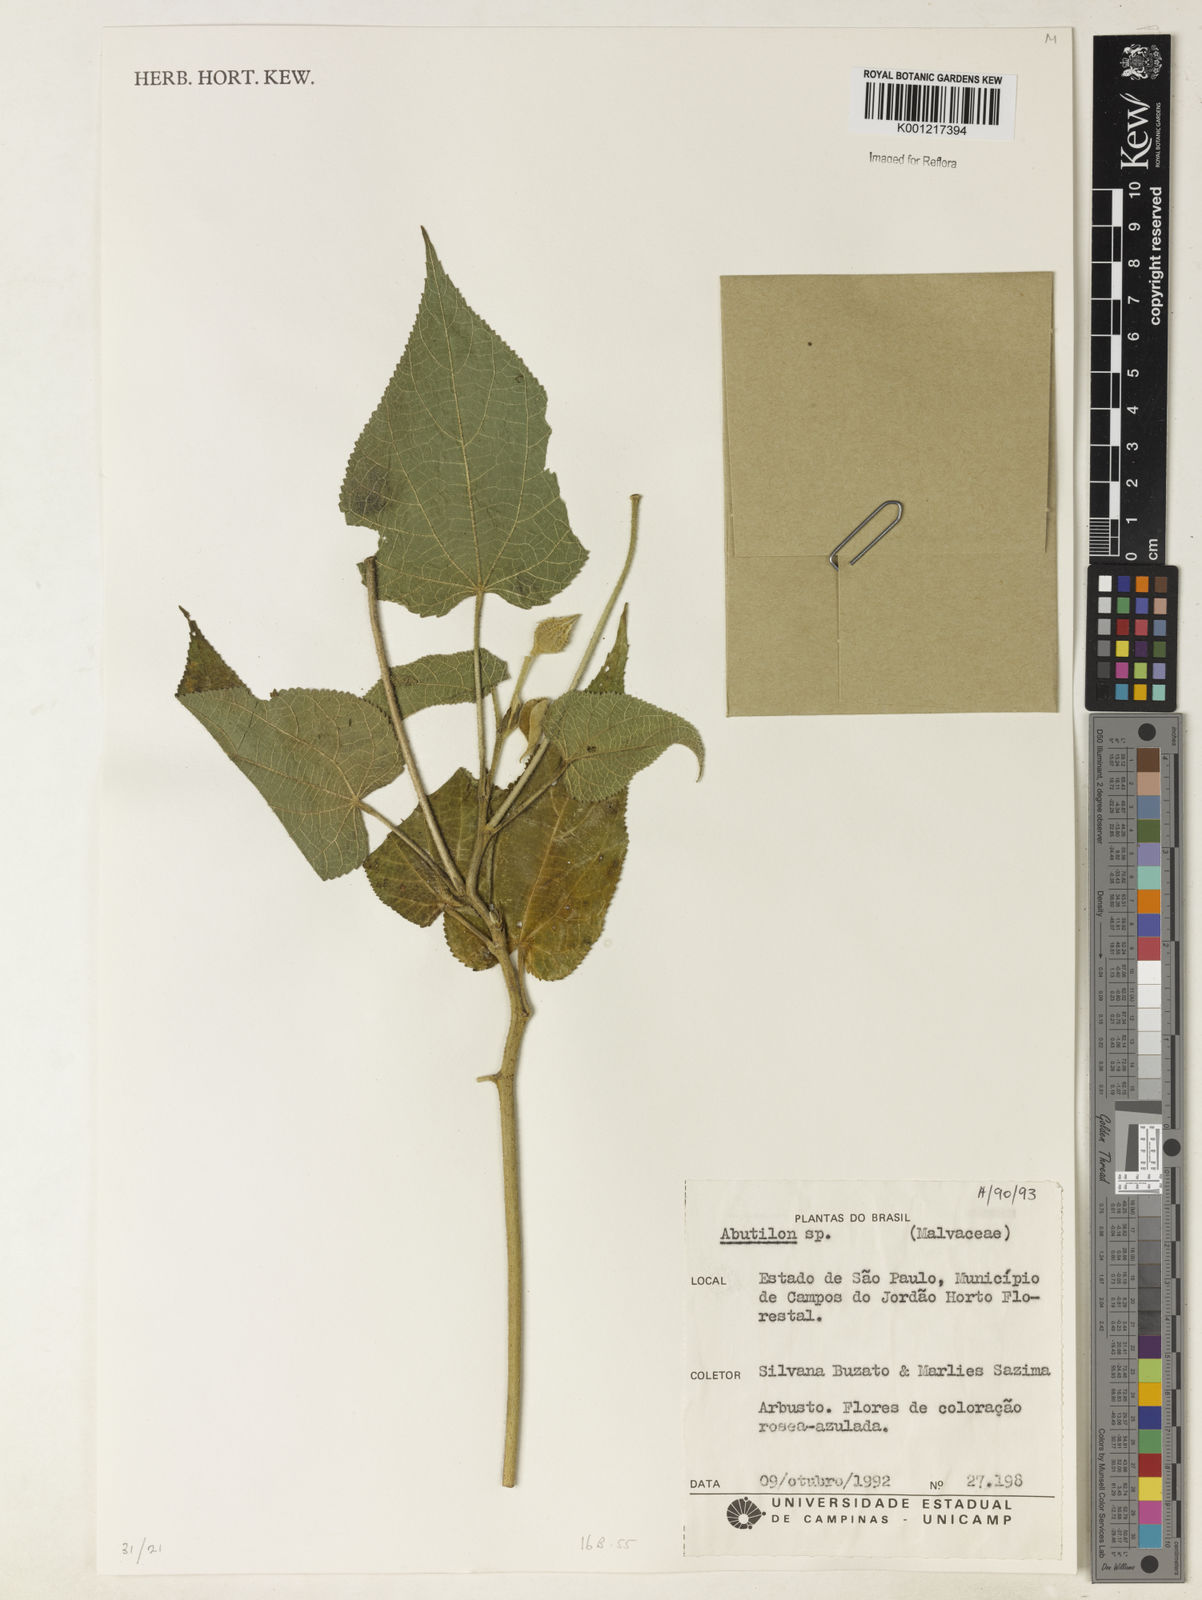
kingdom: Plantae
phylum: Tracheophyta
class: Magnoliopsida
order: Malvales
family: Malvaceae
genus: Abutilon
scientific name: Abutilon
